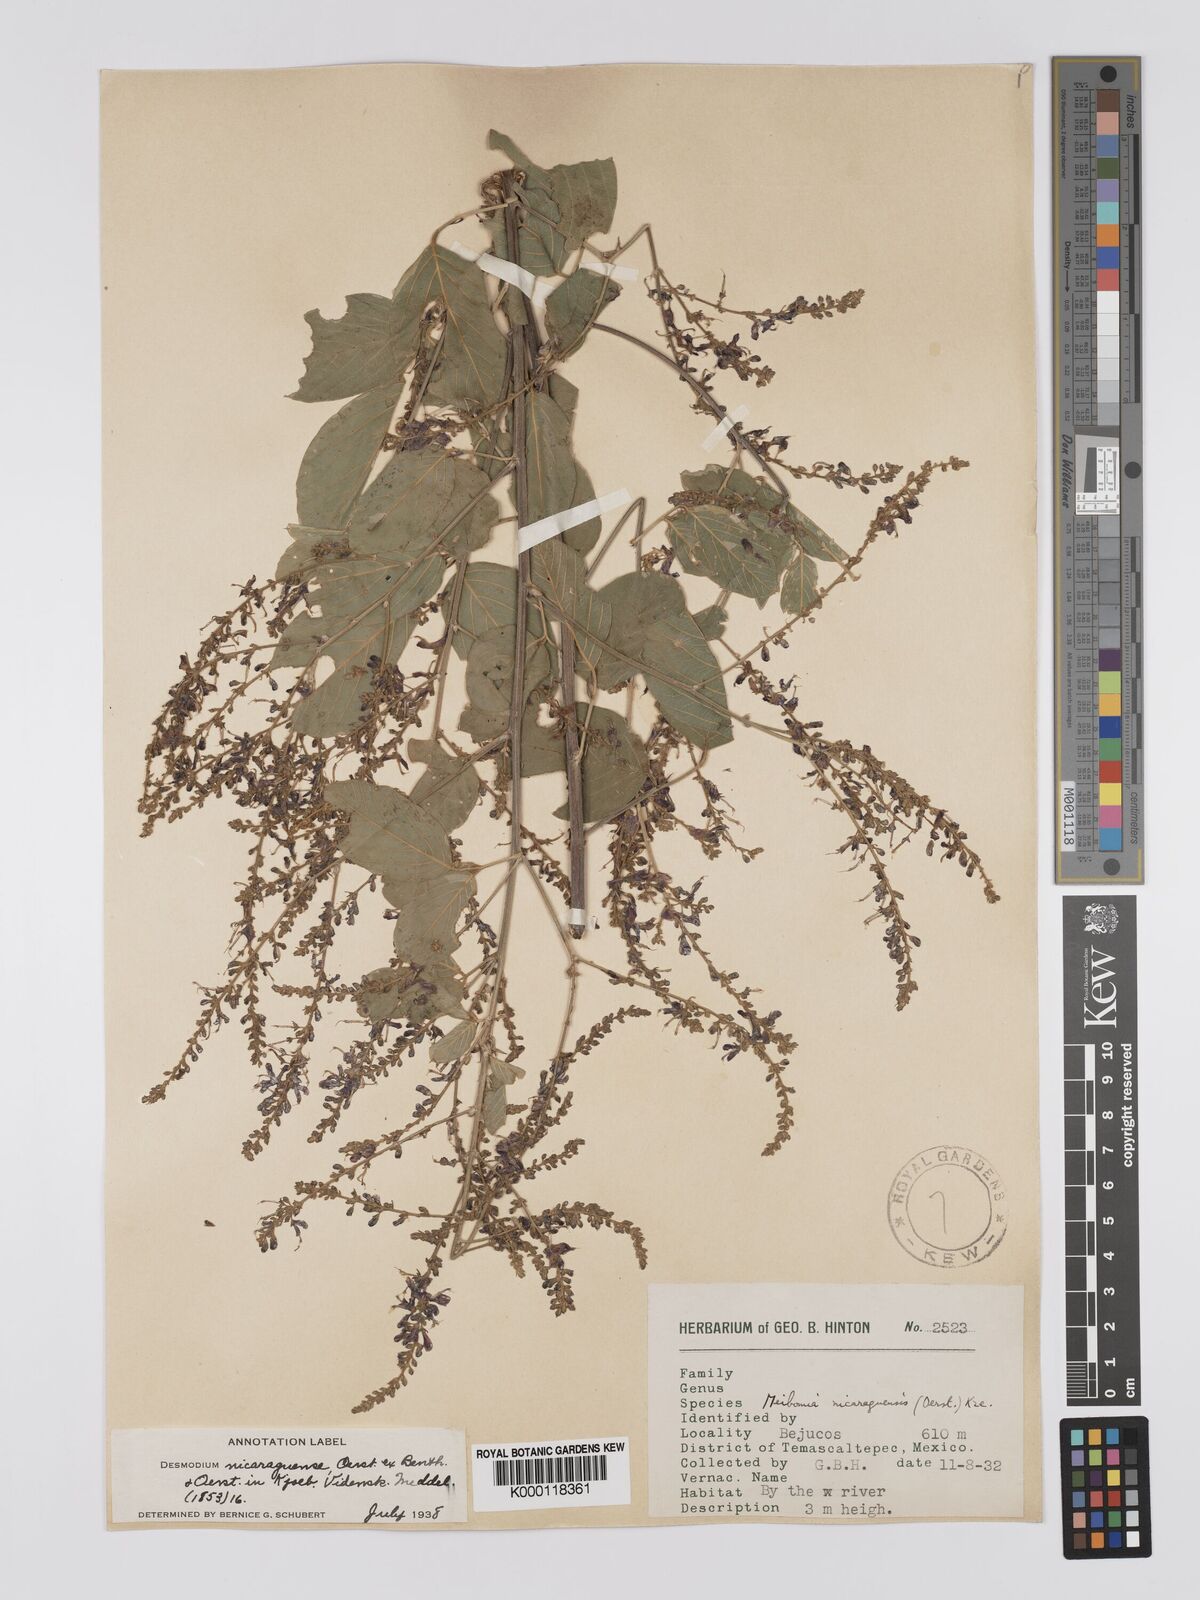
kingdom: Plantae
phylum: Tracheophyta
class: Magnoliopsida
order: Fabales
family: Fabaceae
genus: Desmodium
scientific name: Desmodium nicaraguense
